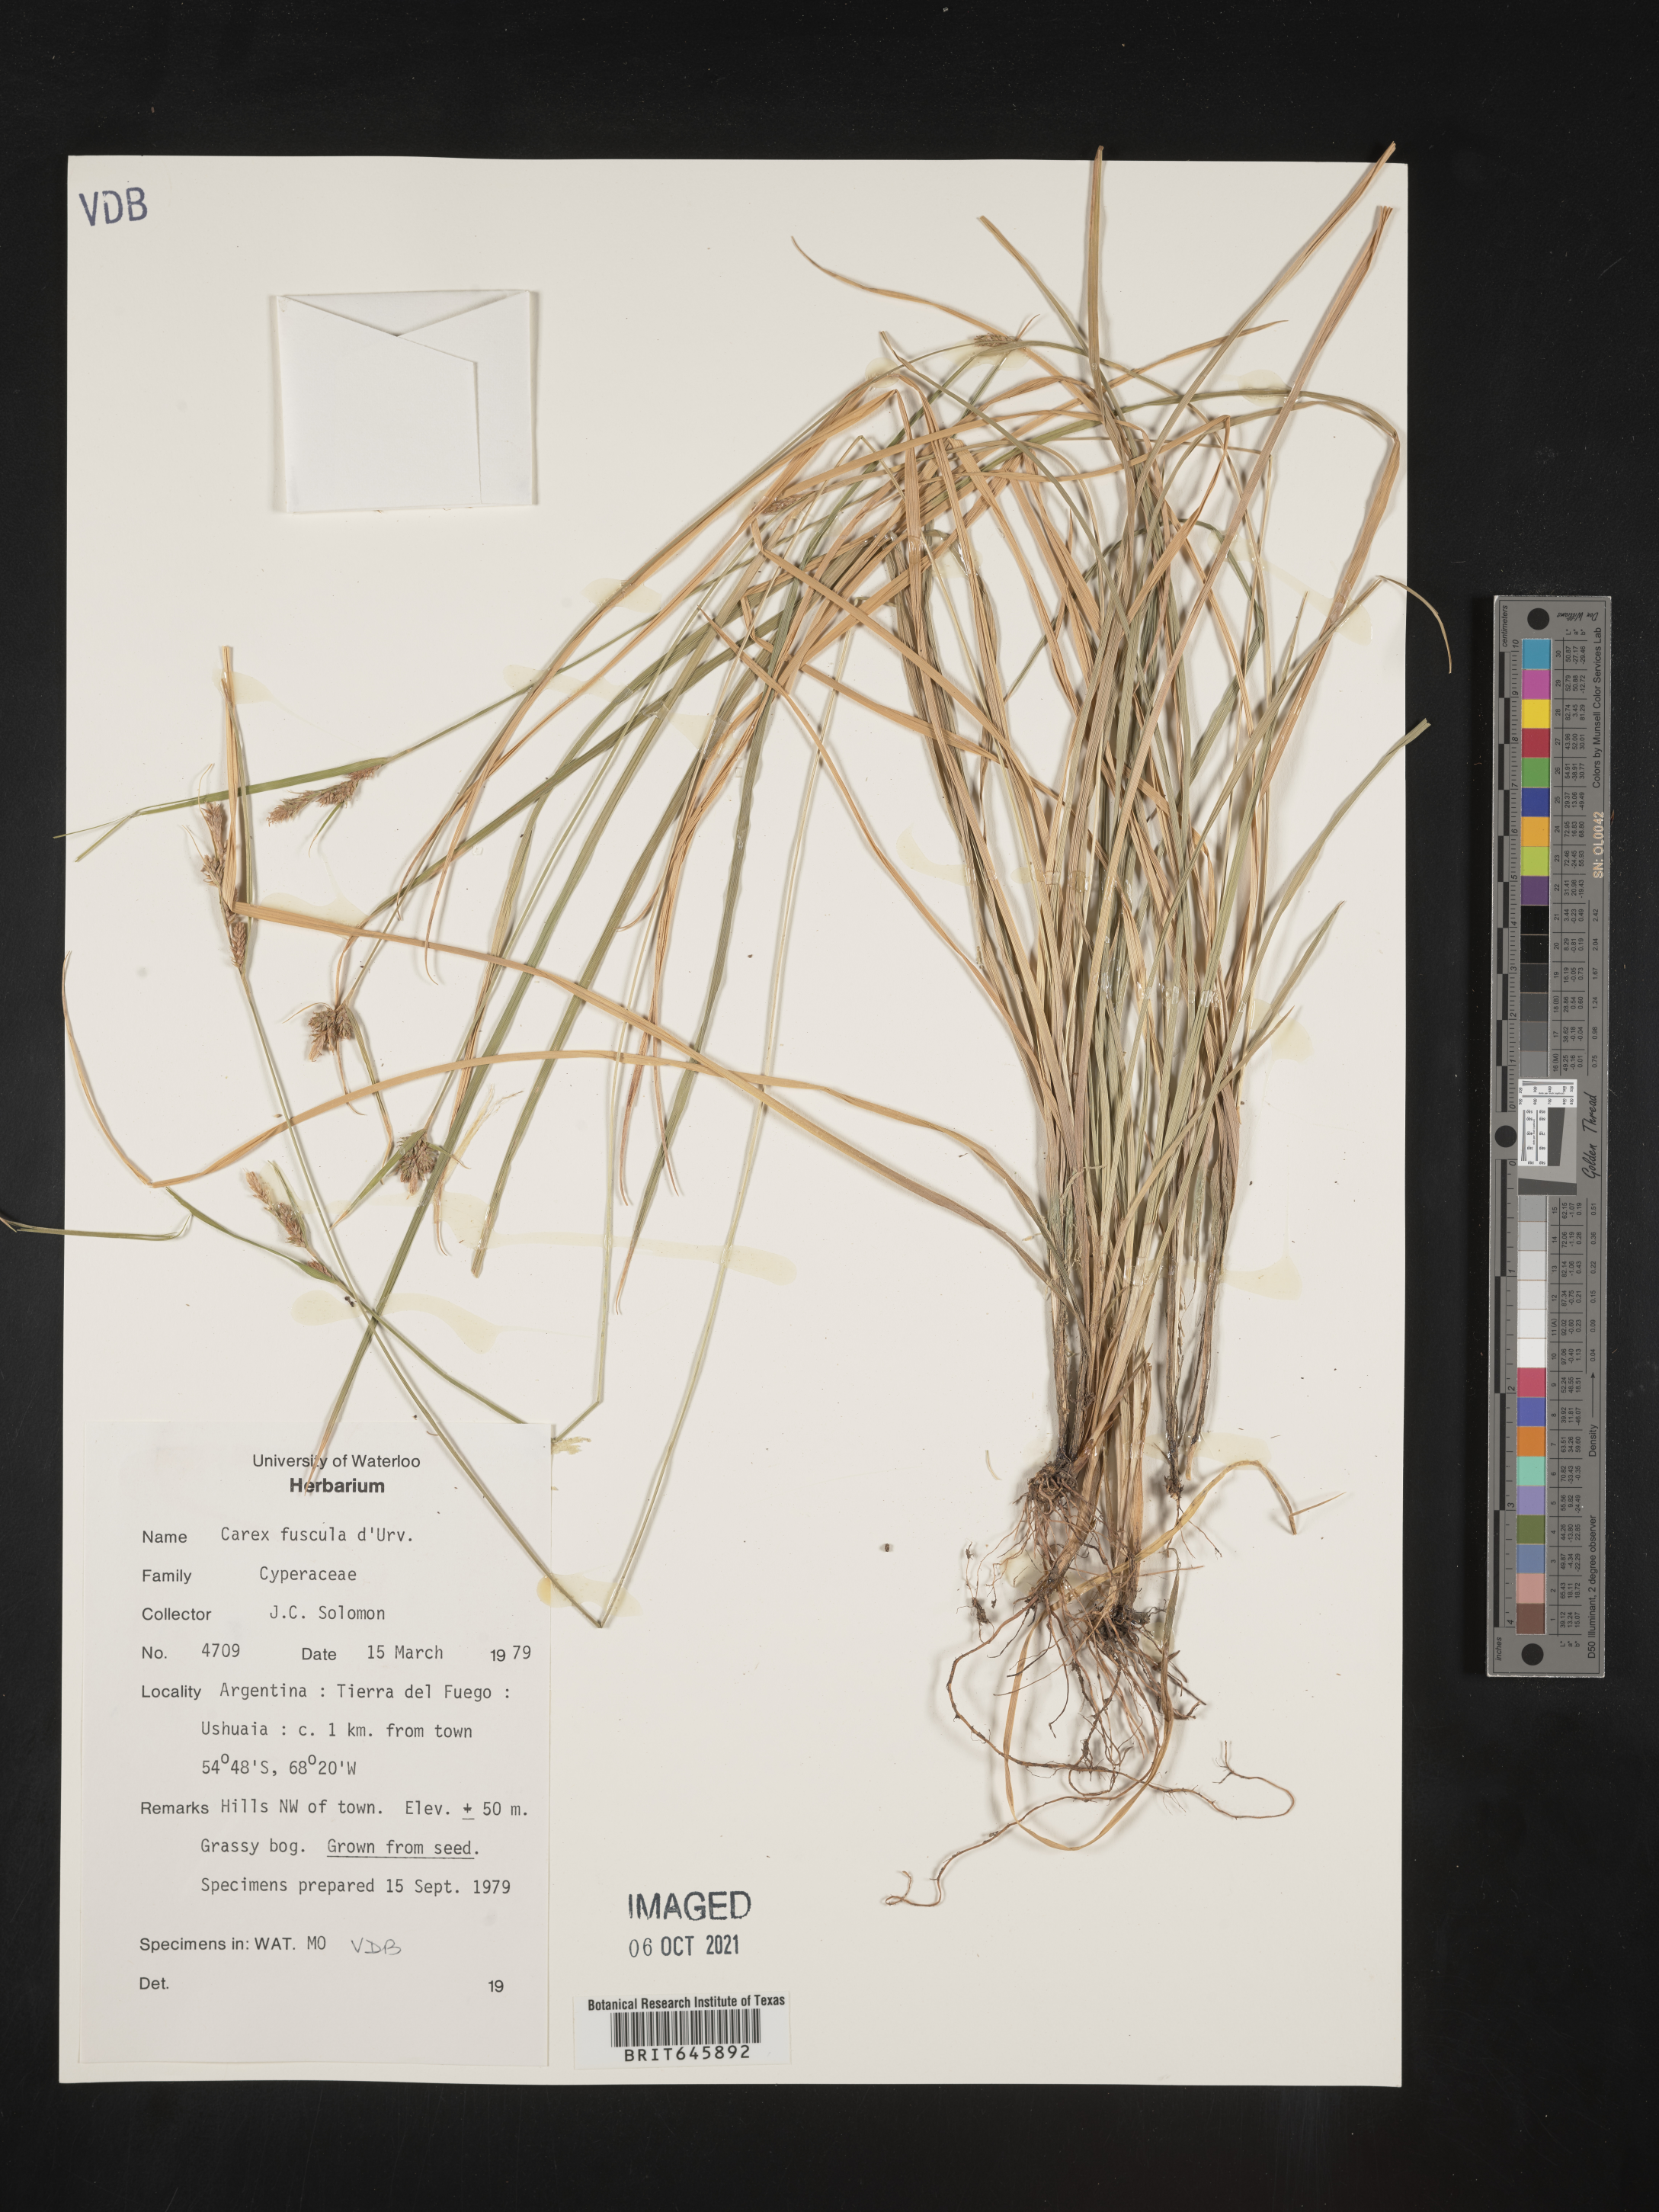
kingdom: Plantae
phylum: Tracheophyta
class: Liliopsida
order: Poales
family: Cyperaceae
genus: Carex
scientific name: Carex fuscula
